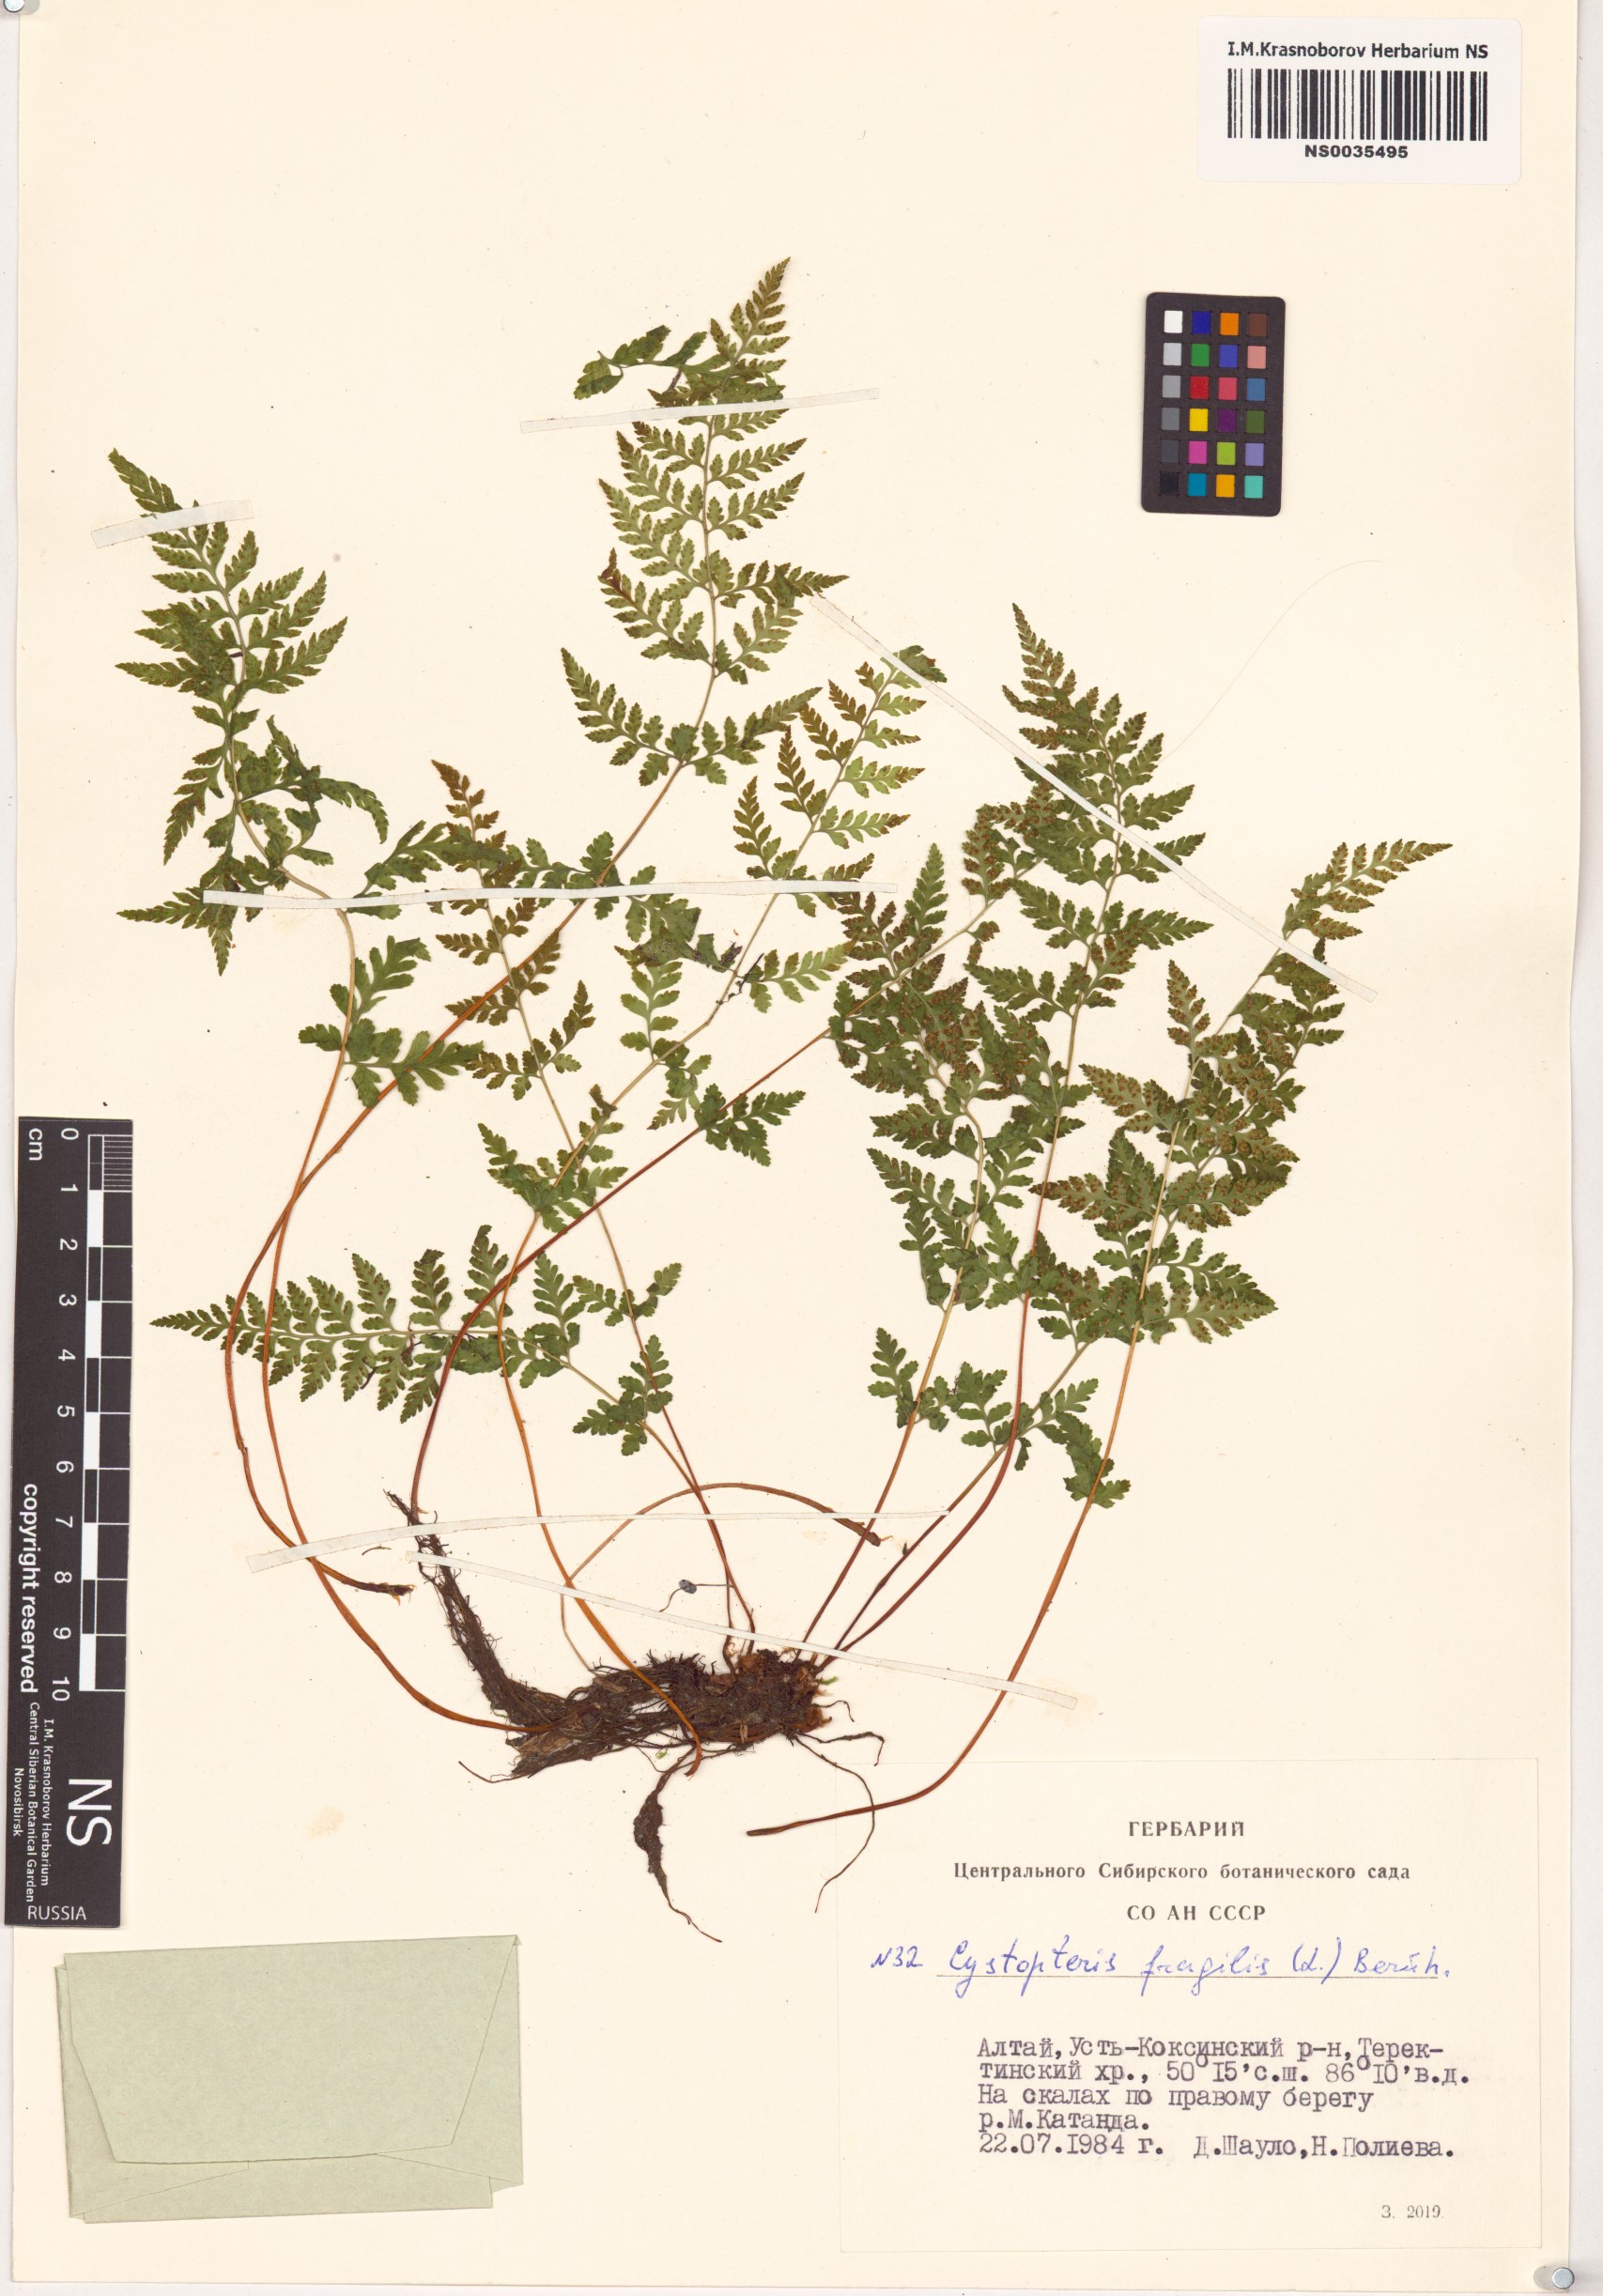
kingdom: Plantae
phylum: Tracheophyta
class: Polypodiopsida
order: Polypodiales
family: Cystopteridaceae
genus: Cystopteris
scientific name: Cystopteris fragilis
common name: Brittle bladder fern
